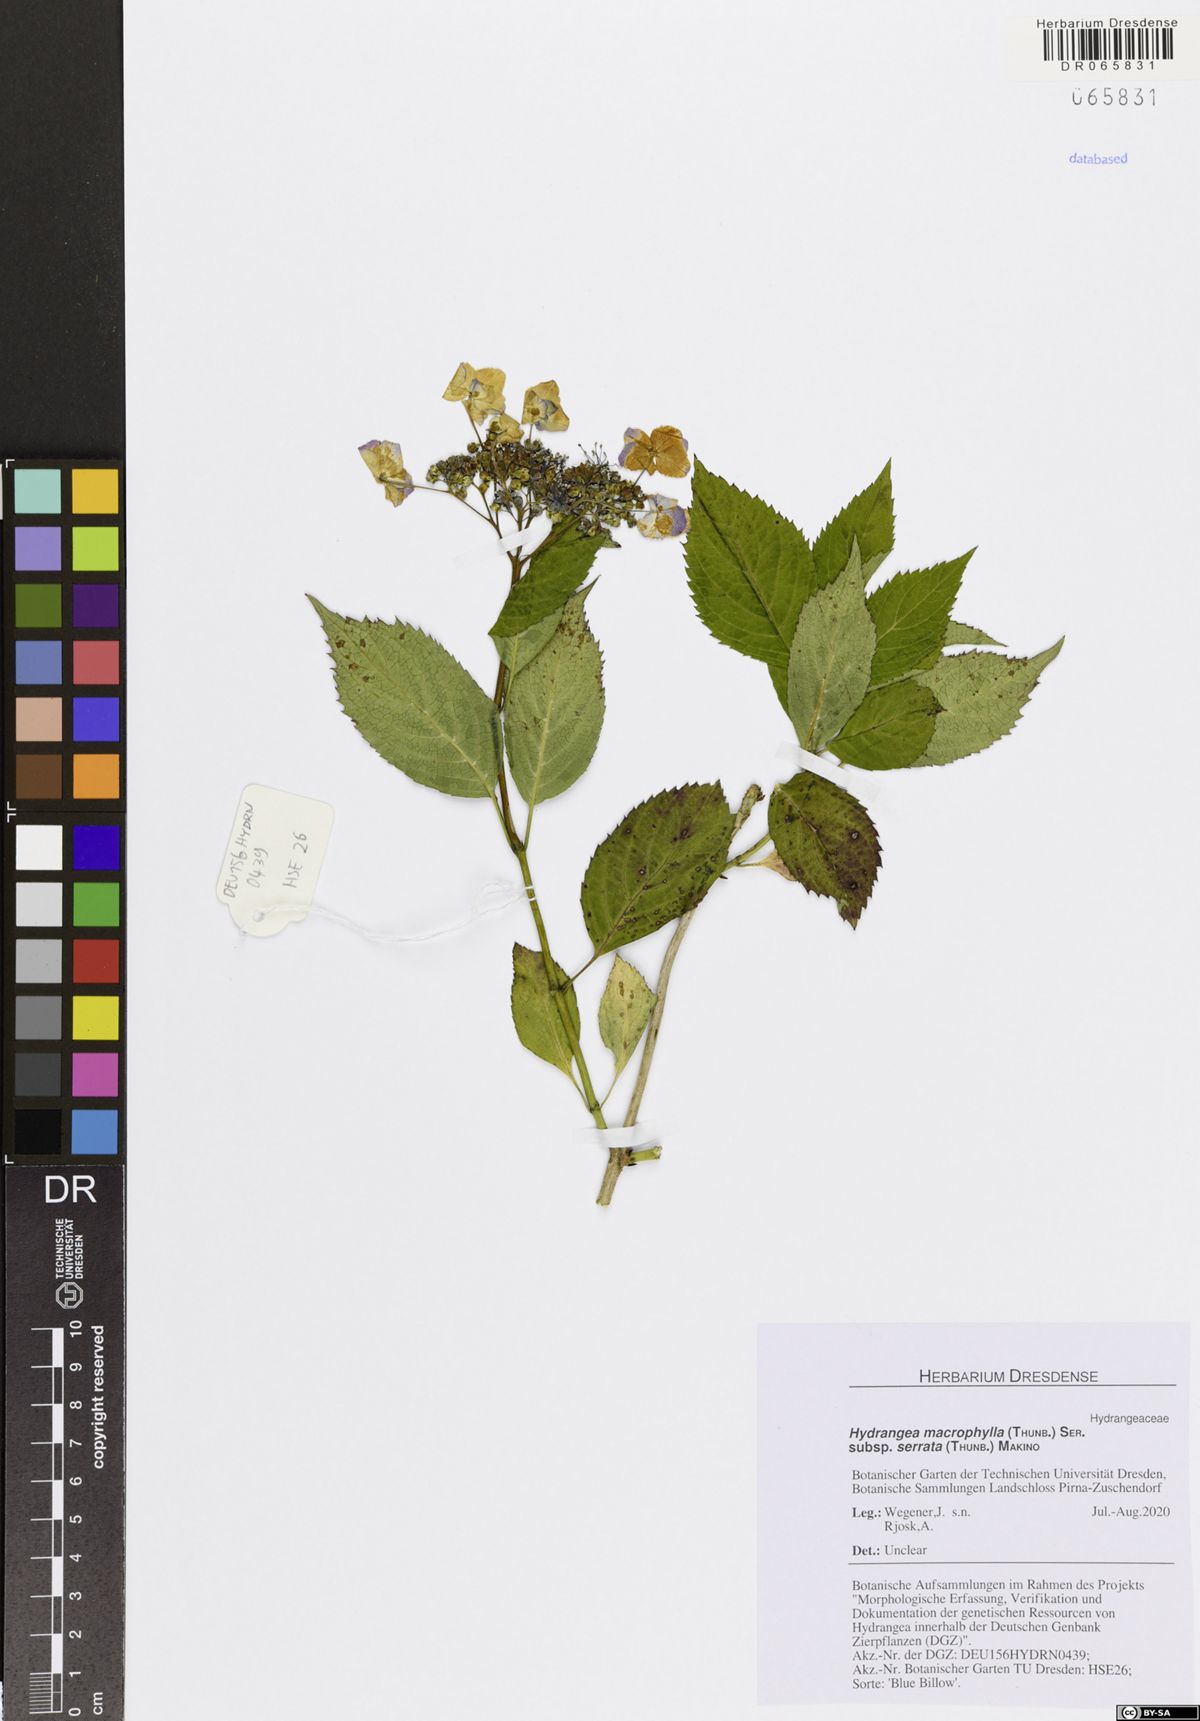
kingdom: Plantae
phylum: Tracheophyta
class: Magnoliopsida
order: Cornales
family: Hydrangeaceae
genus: Hydrangea
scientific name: Hydrangea serrata
